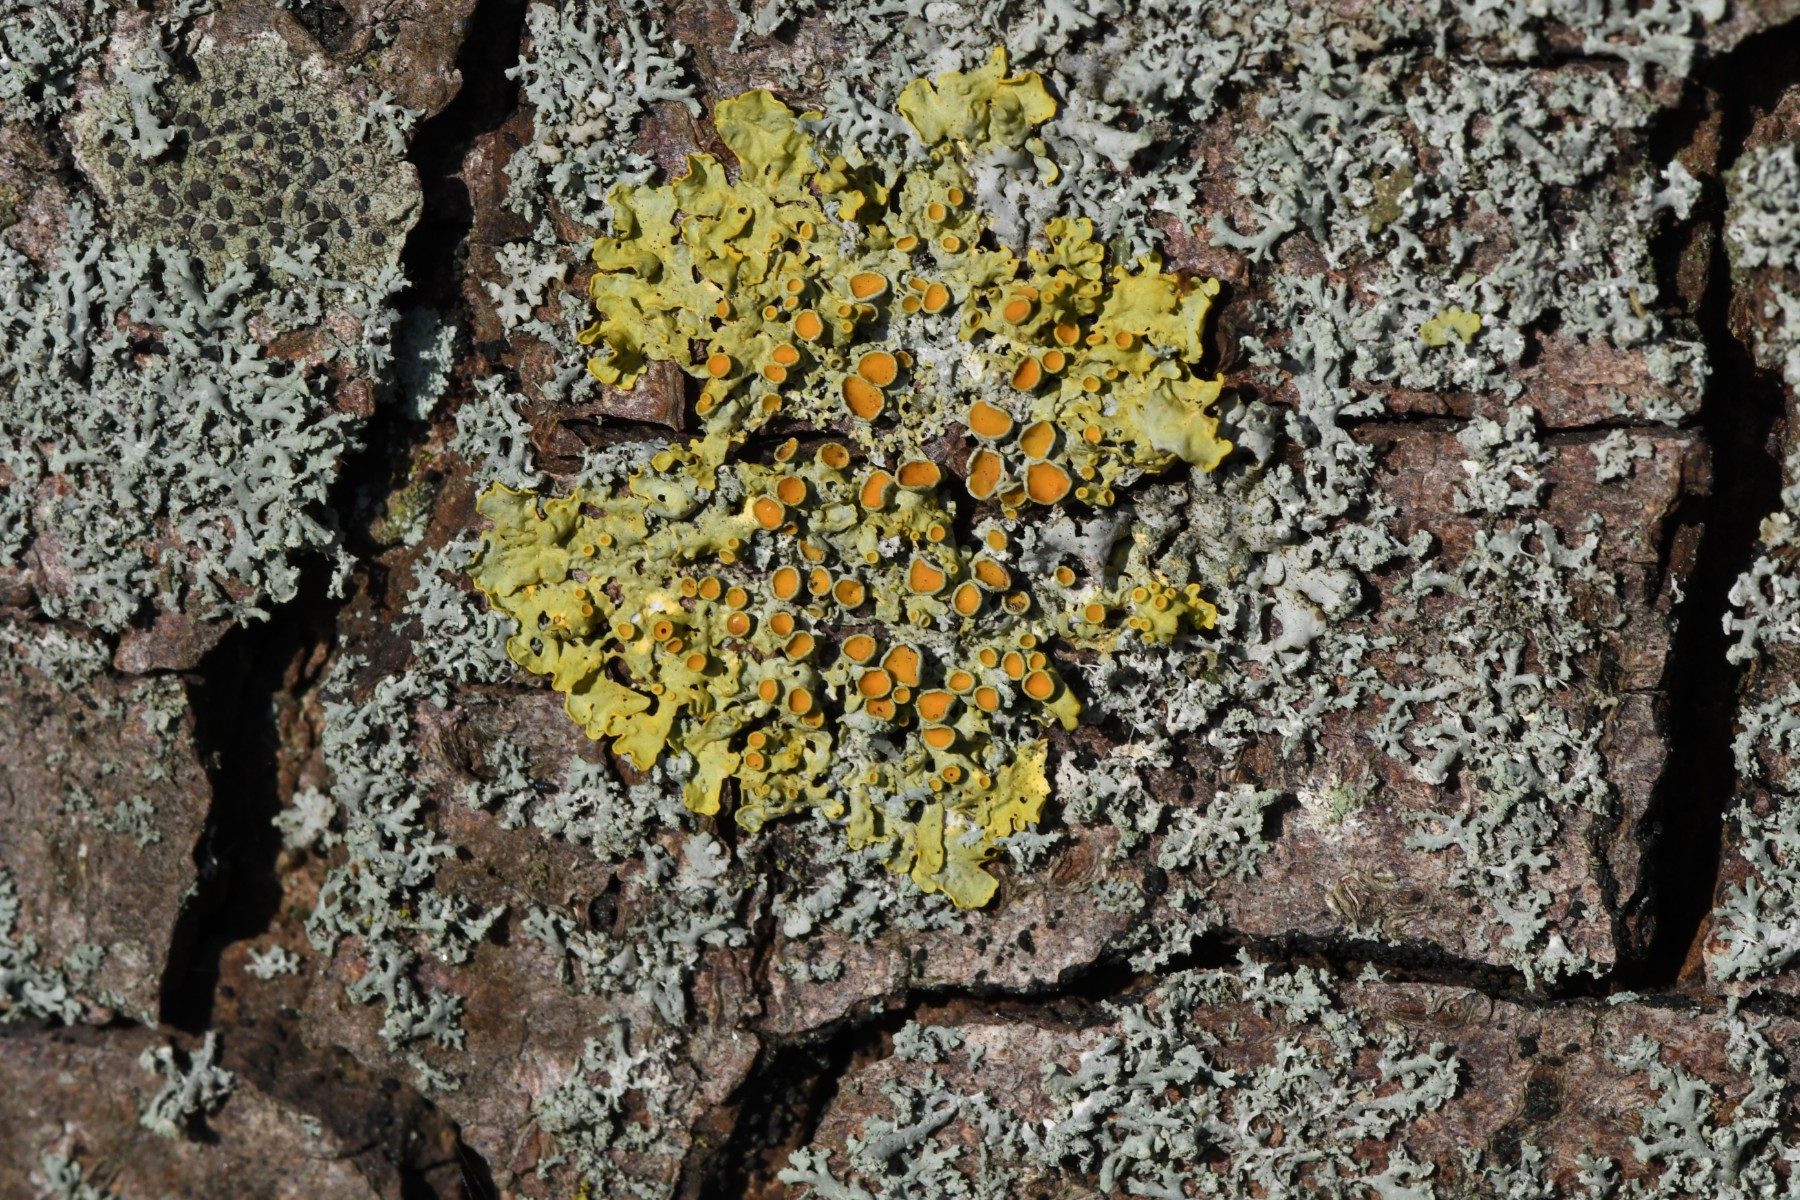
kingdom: Fungi
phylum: Ascomycota
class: Lecanoromycetes
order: Teloschistales
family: Teloschistaceae
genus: Xanthoria
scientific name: Xanthoria parietina
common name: almindelig væggelav
